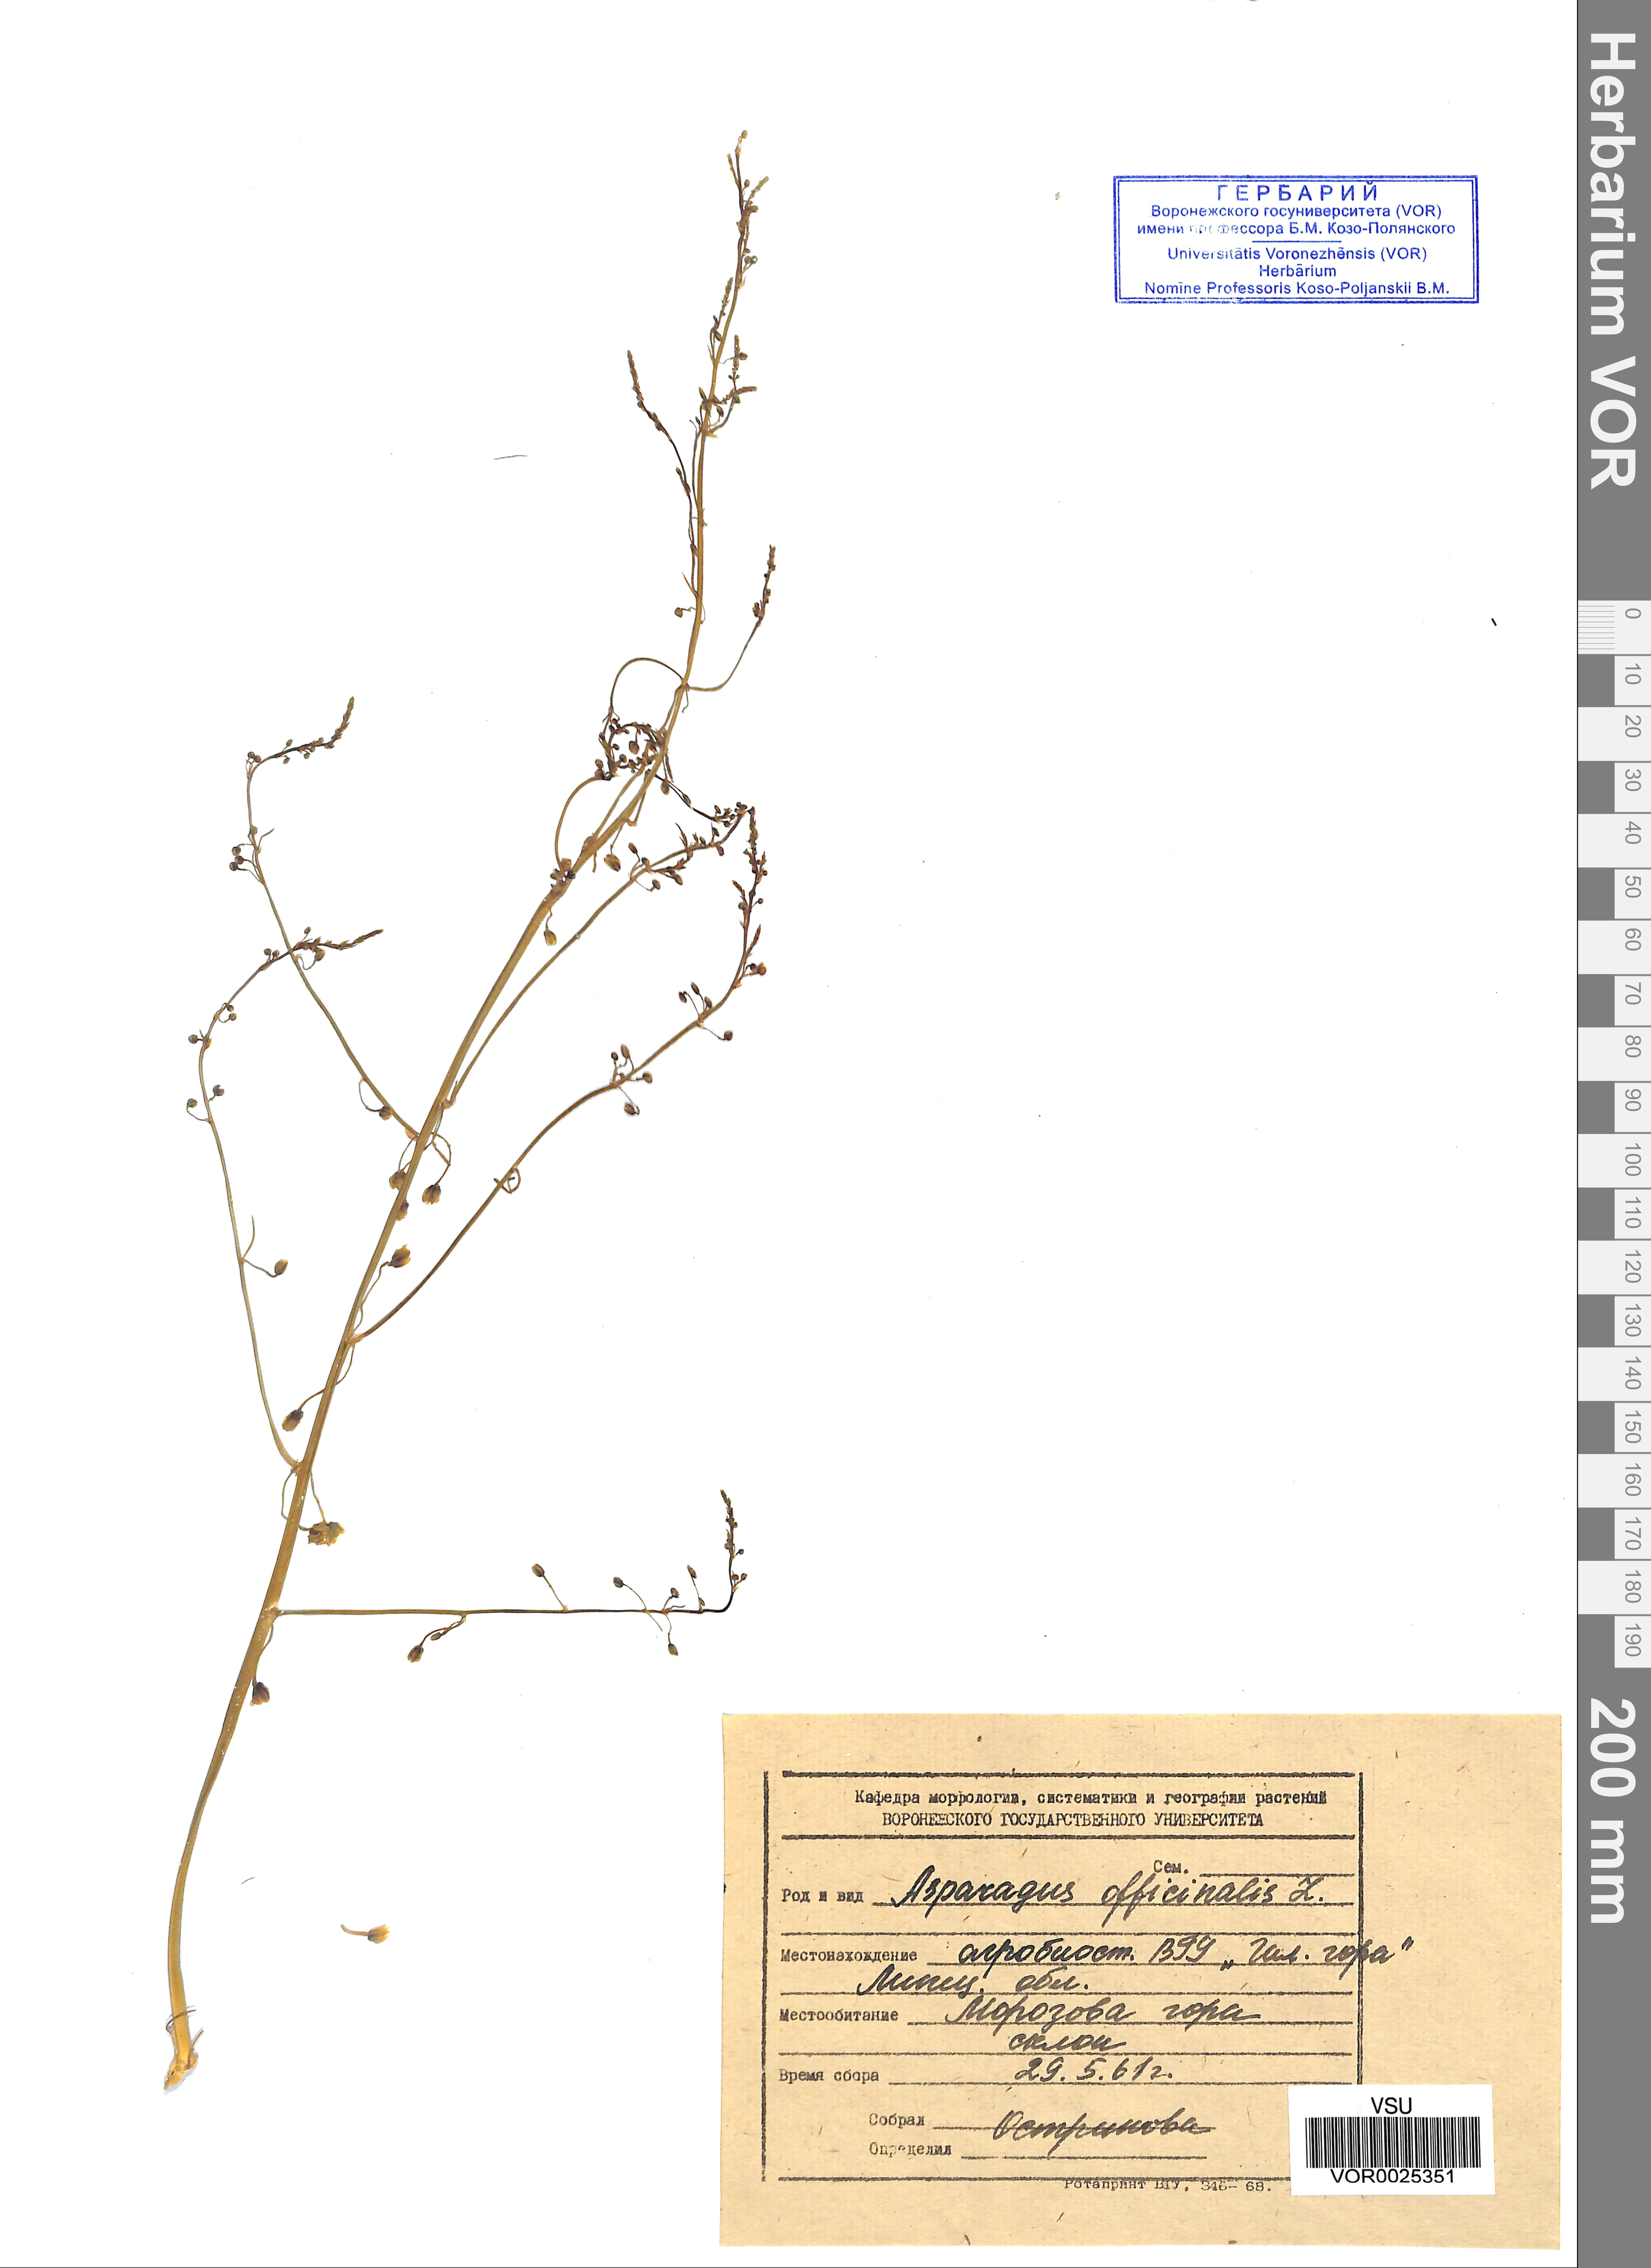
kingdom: Plantae
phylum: Tracheophyta
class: Liliopsida
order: Asparagales
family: Asparagaceae
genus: Asparagus
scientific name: Asparagus officinalis
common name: Garden asparagus
